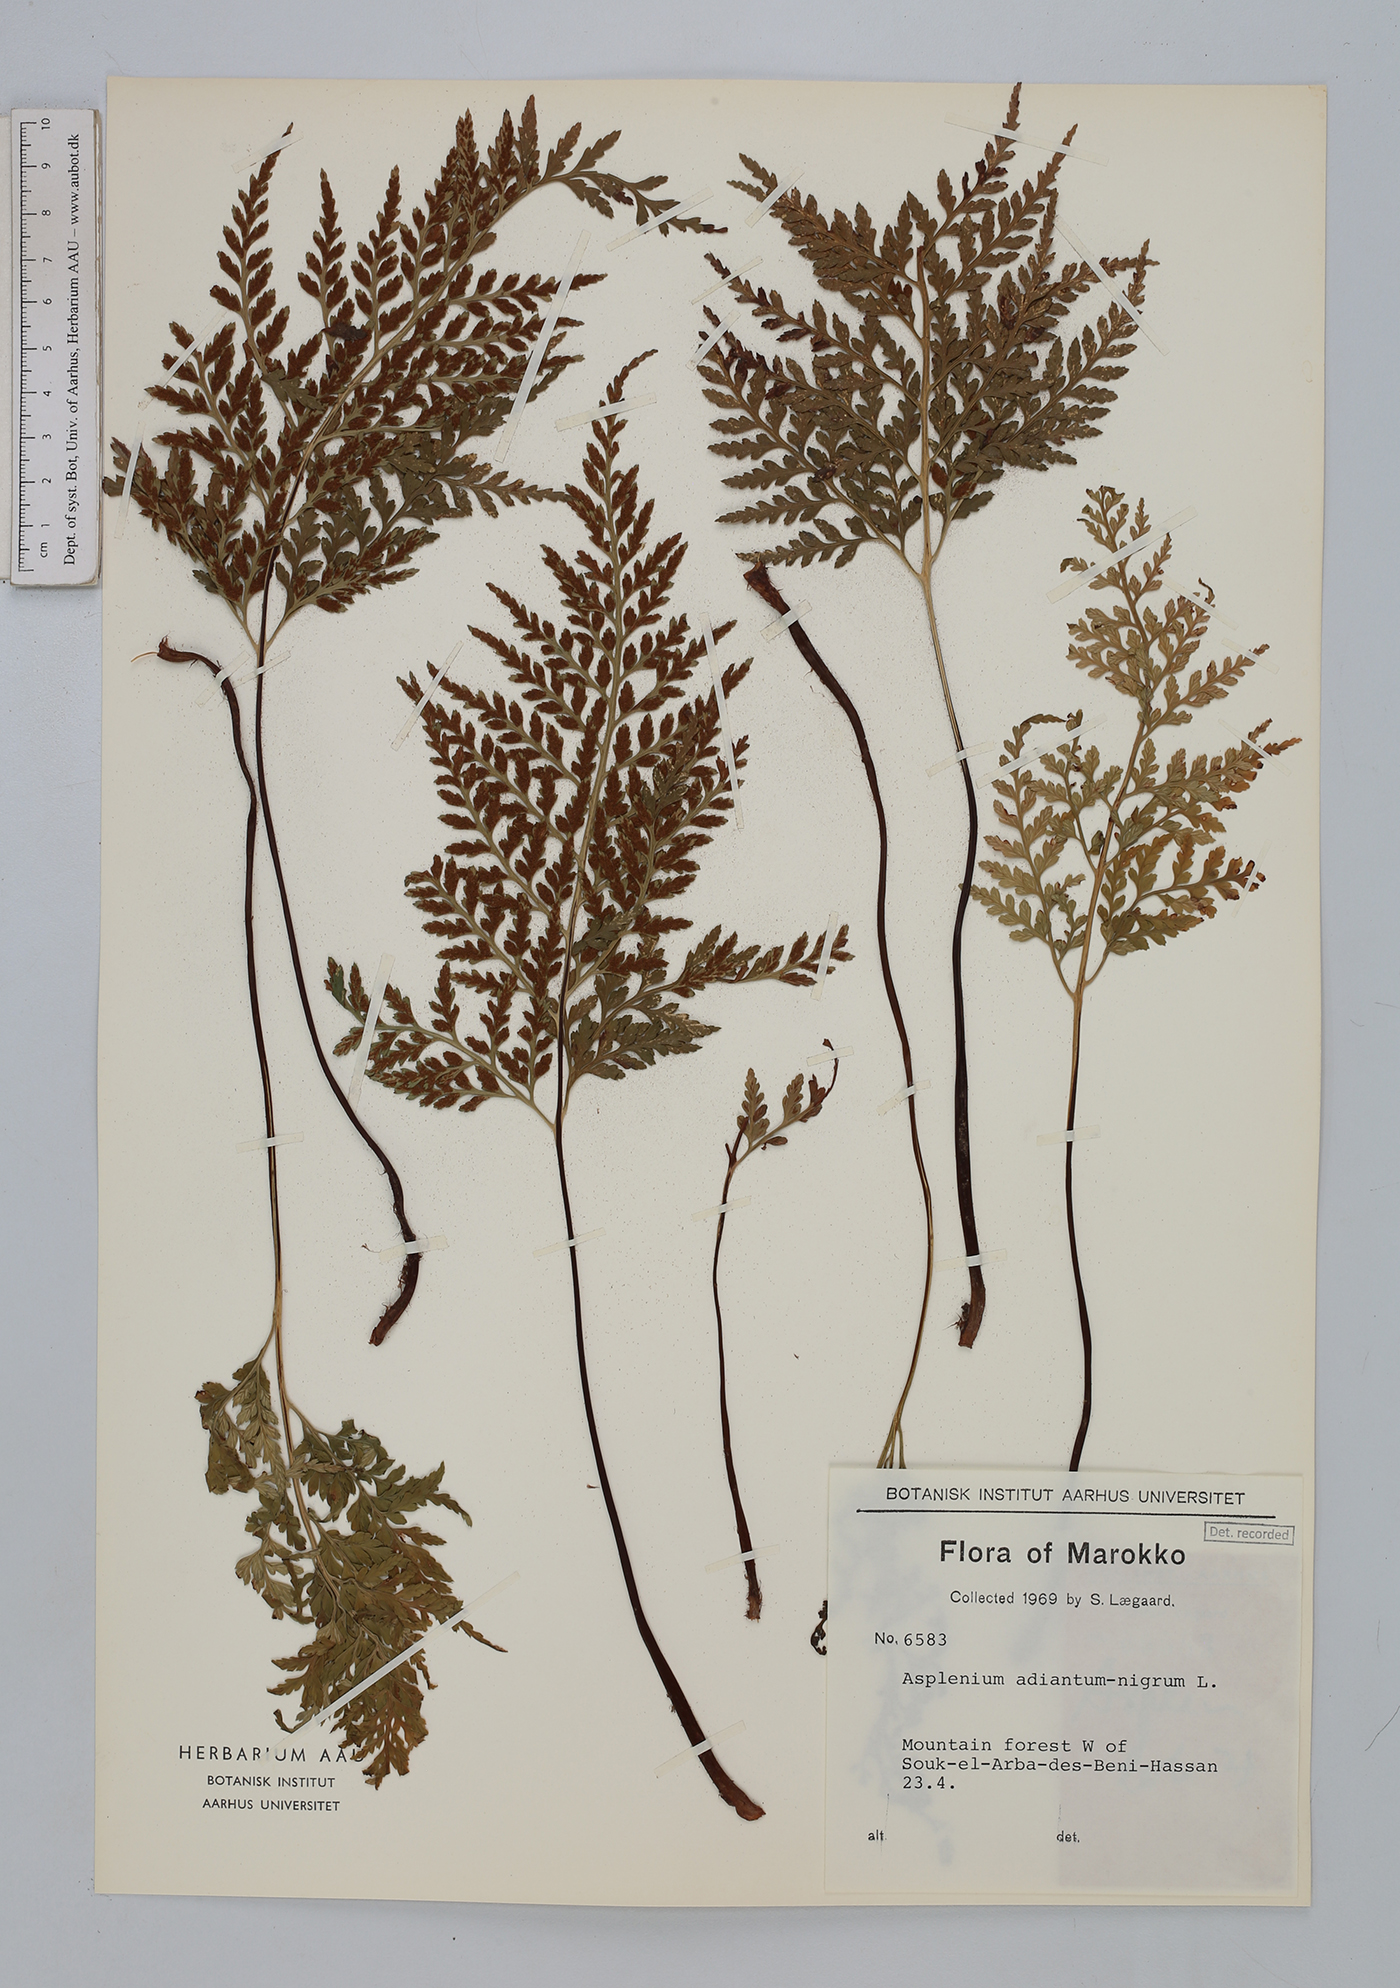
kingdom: Plantae
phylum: Tracheophyta
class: Polypodiopsida
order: Polypodiales
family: Aspleniaceae
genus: Asplenium
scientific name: Asplenium adiantum-nigrum
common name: Black spleenwort
